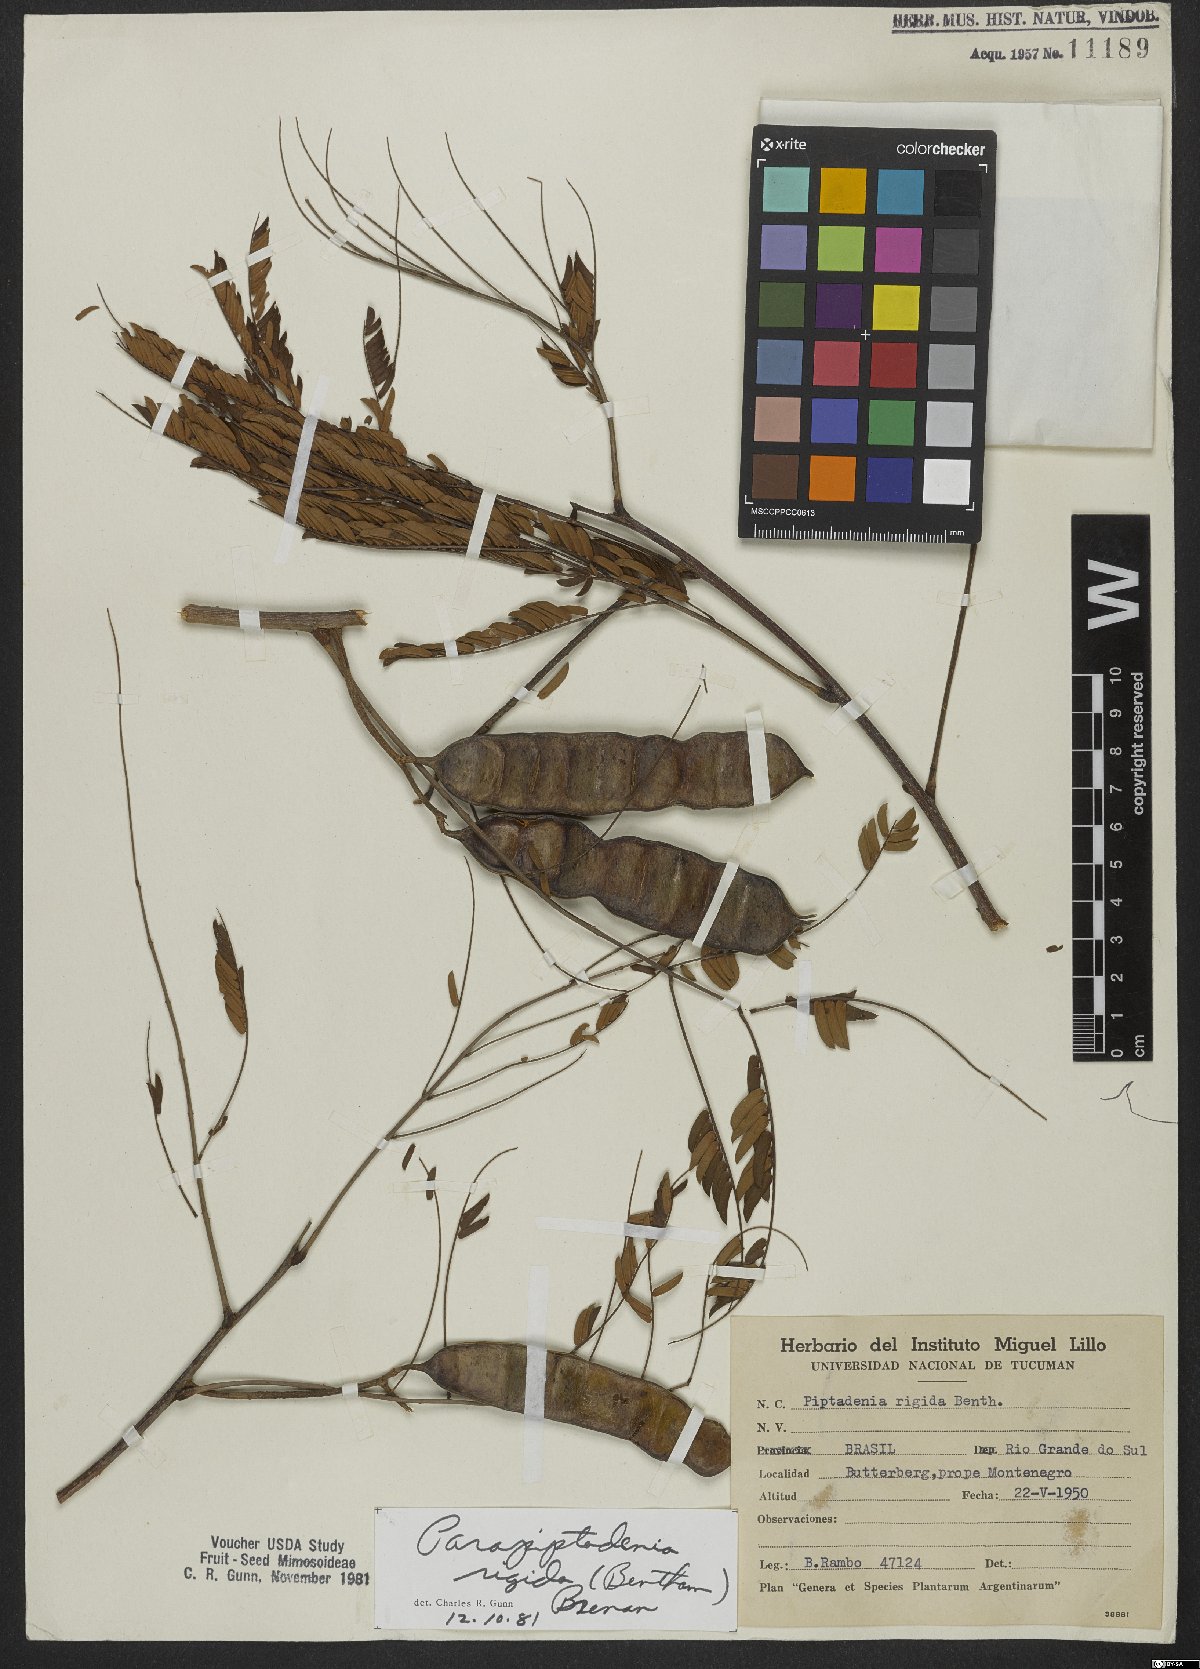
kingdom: Plantae
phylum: Tracheophyta
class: Magnoliopsida
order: Fabales
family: Fabaceae
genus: Parapiptadenia
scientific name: Parapiptadenia rigida
